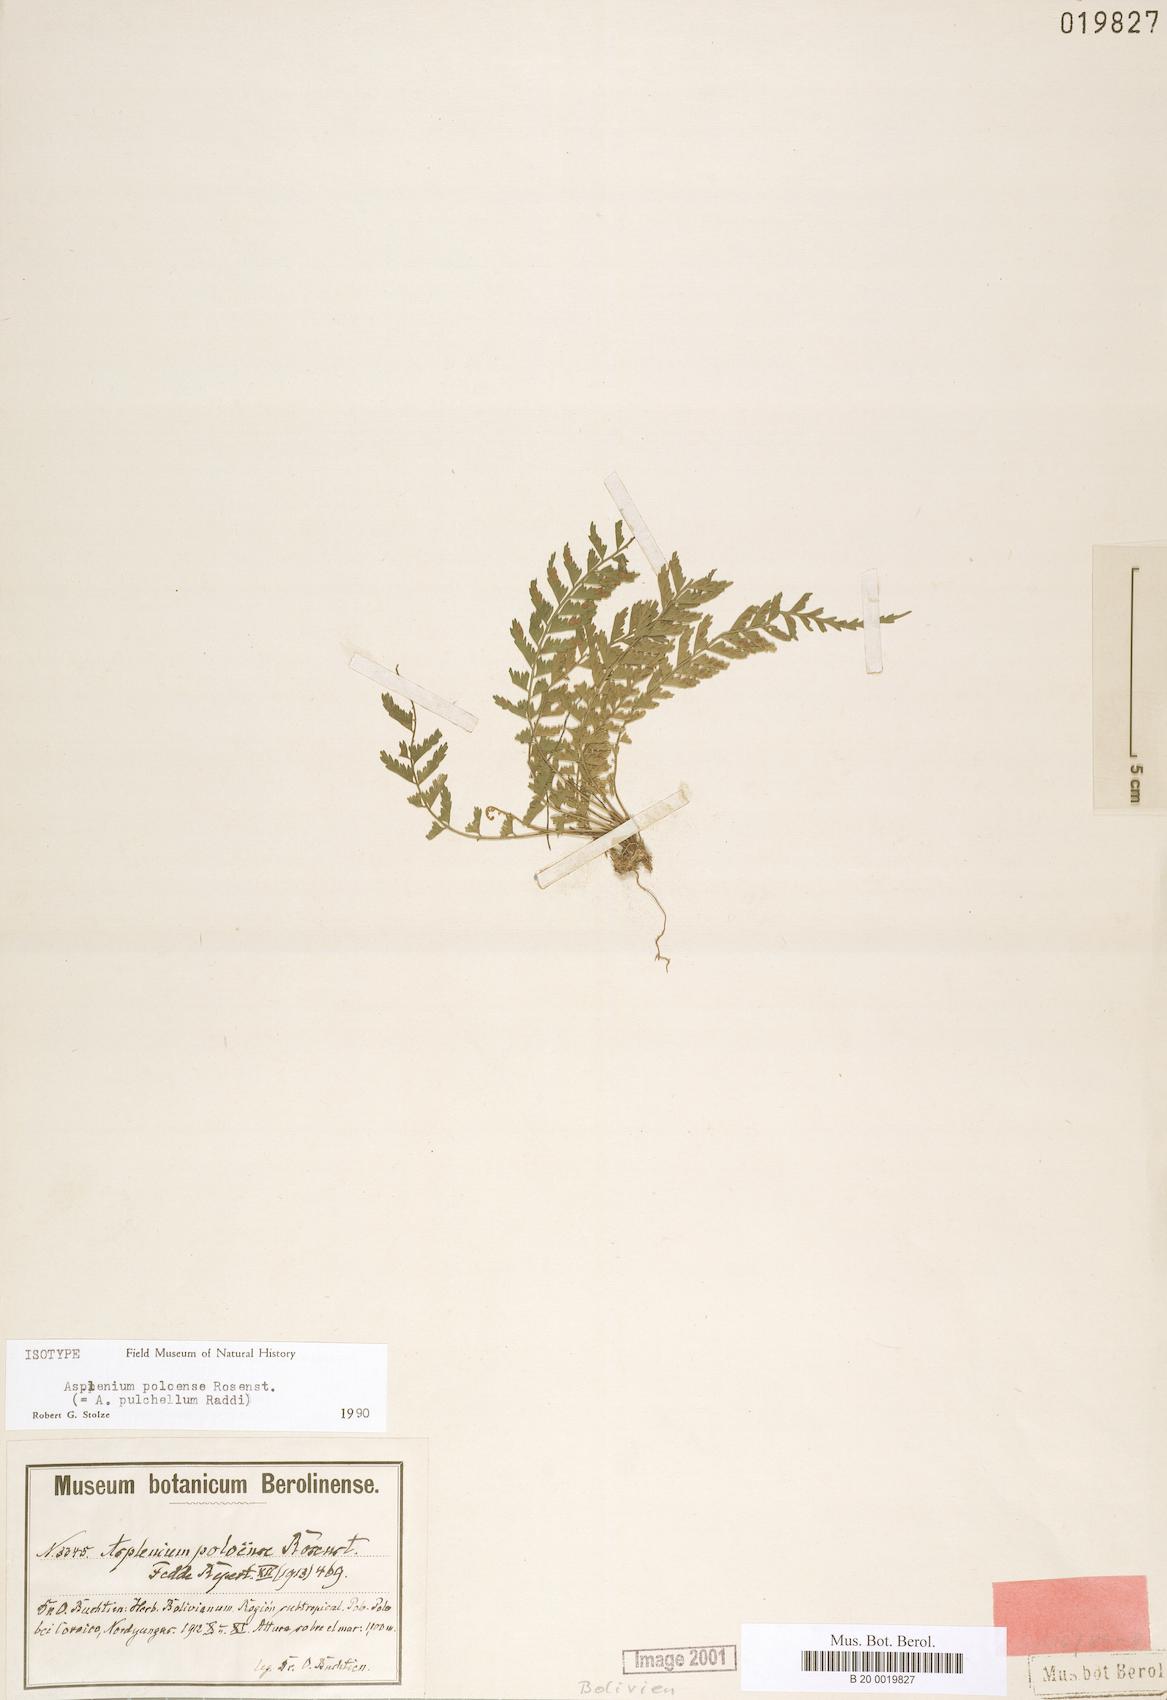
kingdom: Plantae
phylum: Tracheophyta
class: Polypodiopsida
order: Polypodiales
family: Aspleniaceae
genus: Asplenium
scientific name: Asplenium pulchellum
